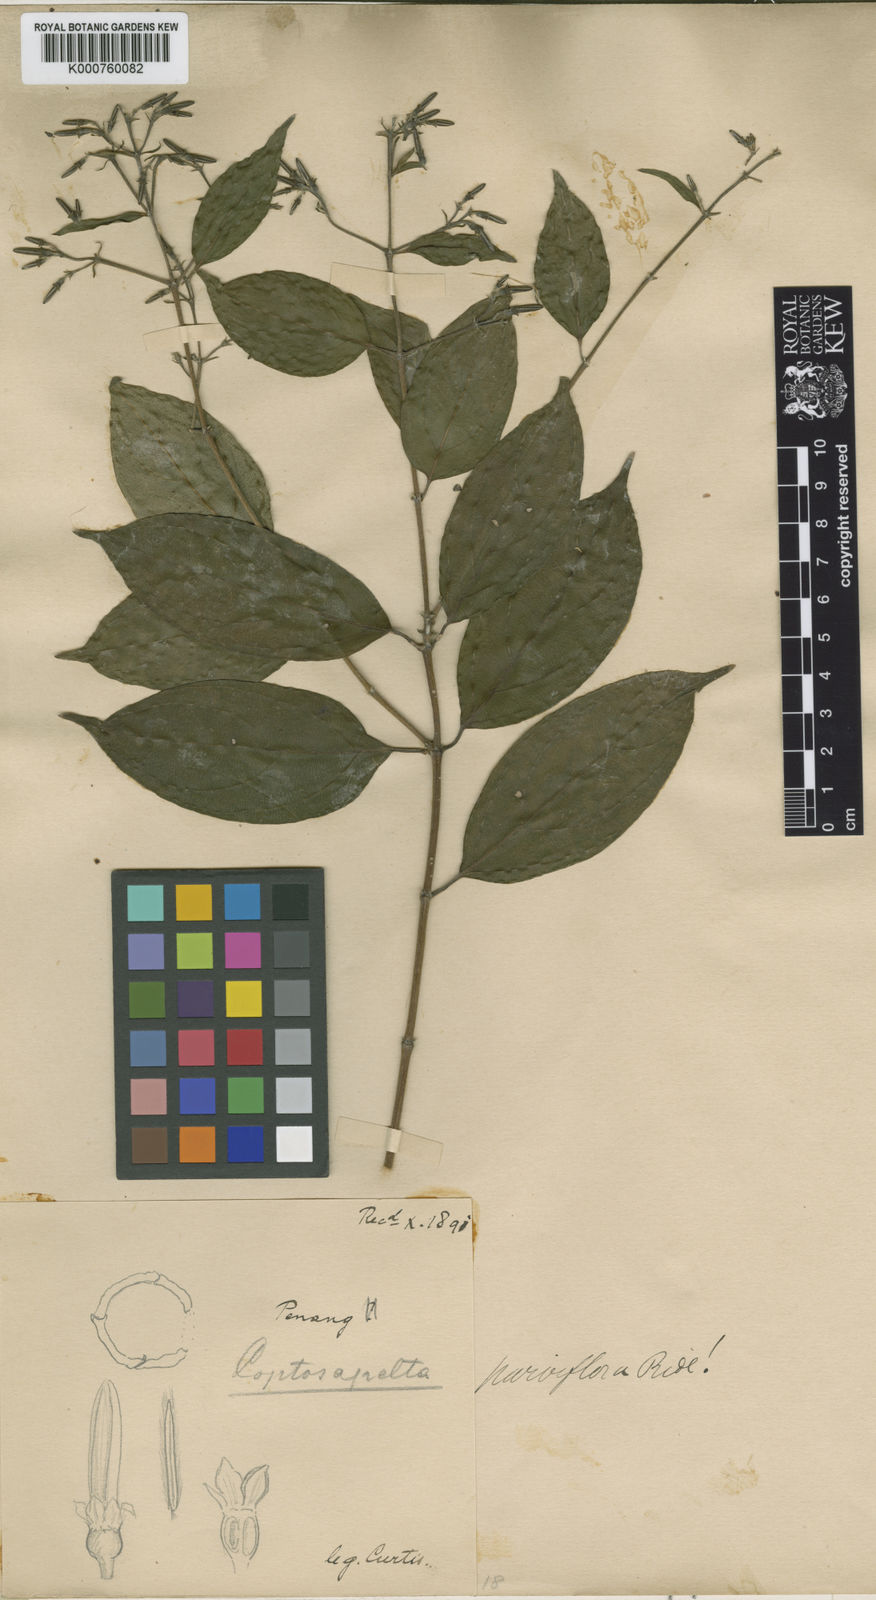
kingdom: Plantae
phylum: Tracheophyta
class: Magnoliopsida
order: Gentianales
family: Rubiaceae
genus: Coptosapelta
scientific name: Coptosapelta parviflora
